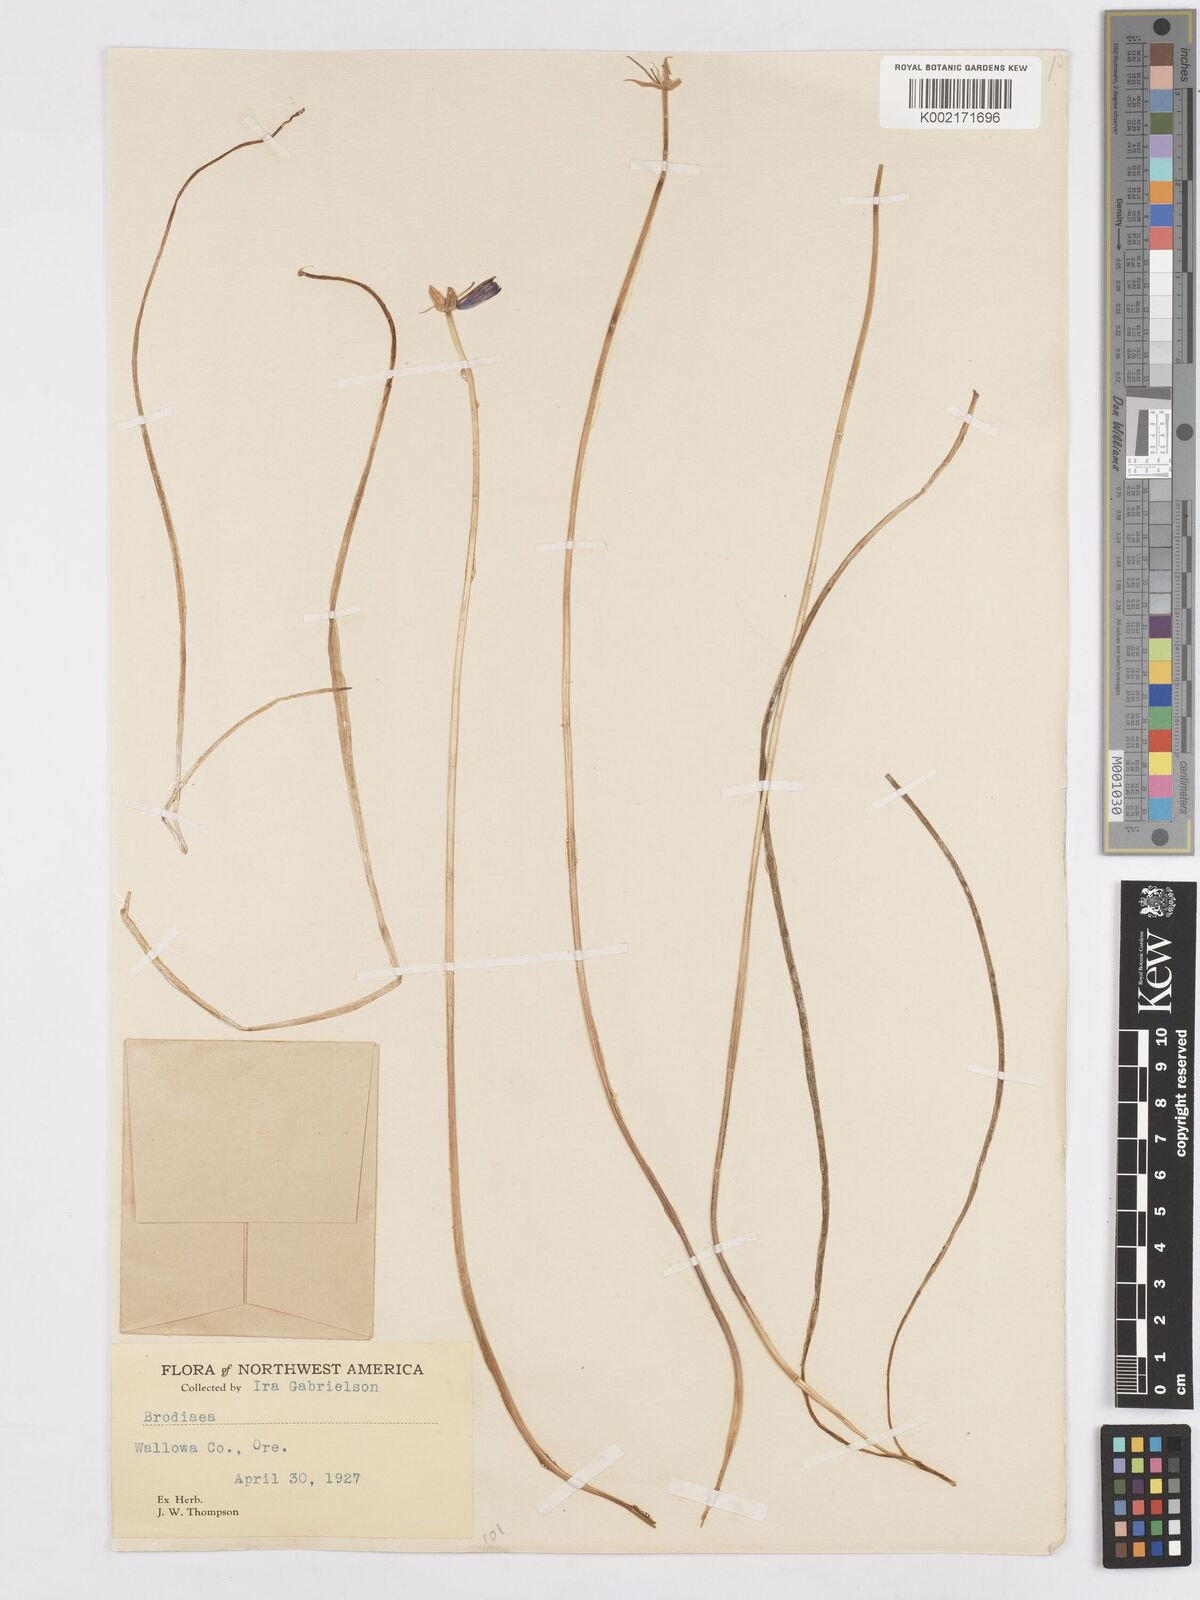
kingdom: Plantae
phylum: Tracheophyta
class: Liliopsida
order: Asparagales
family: Asparagaceae
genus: Triteleia
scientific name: Triteleia grandiflora
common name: Wild hyacinth
